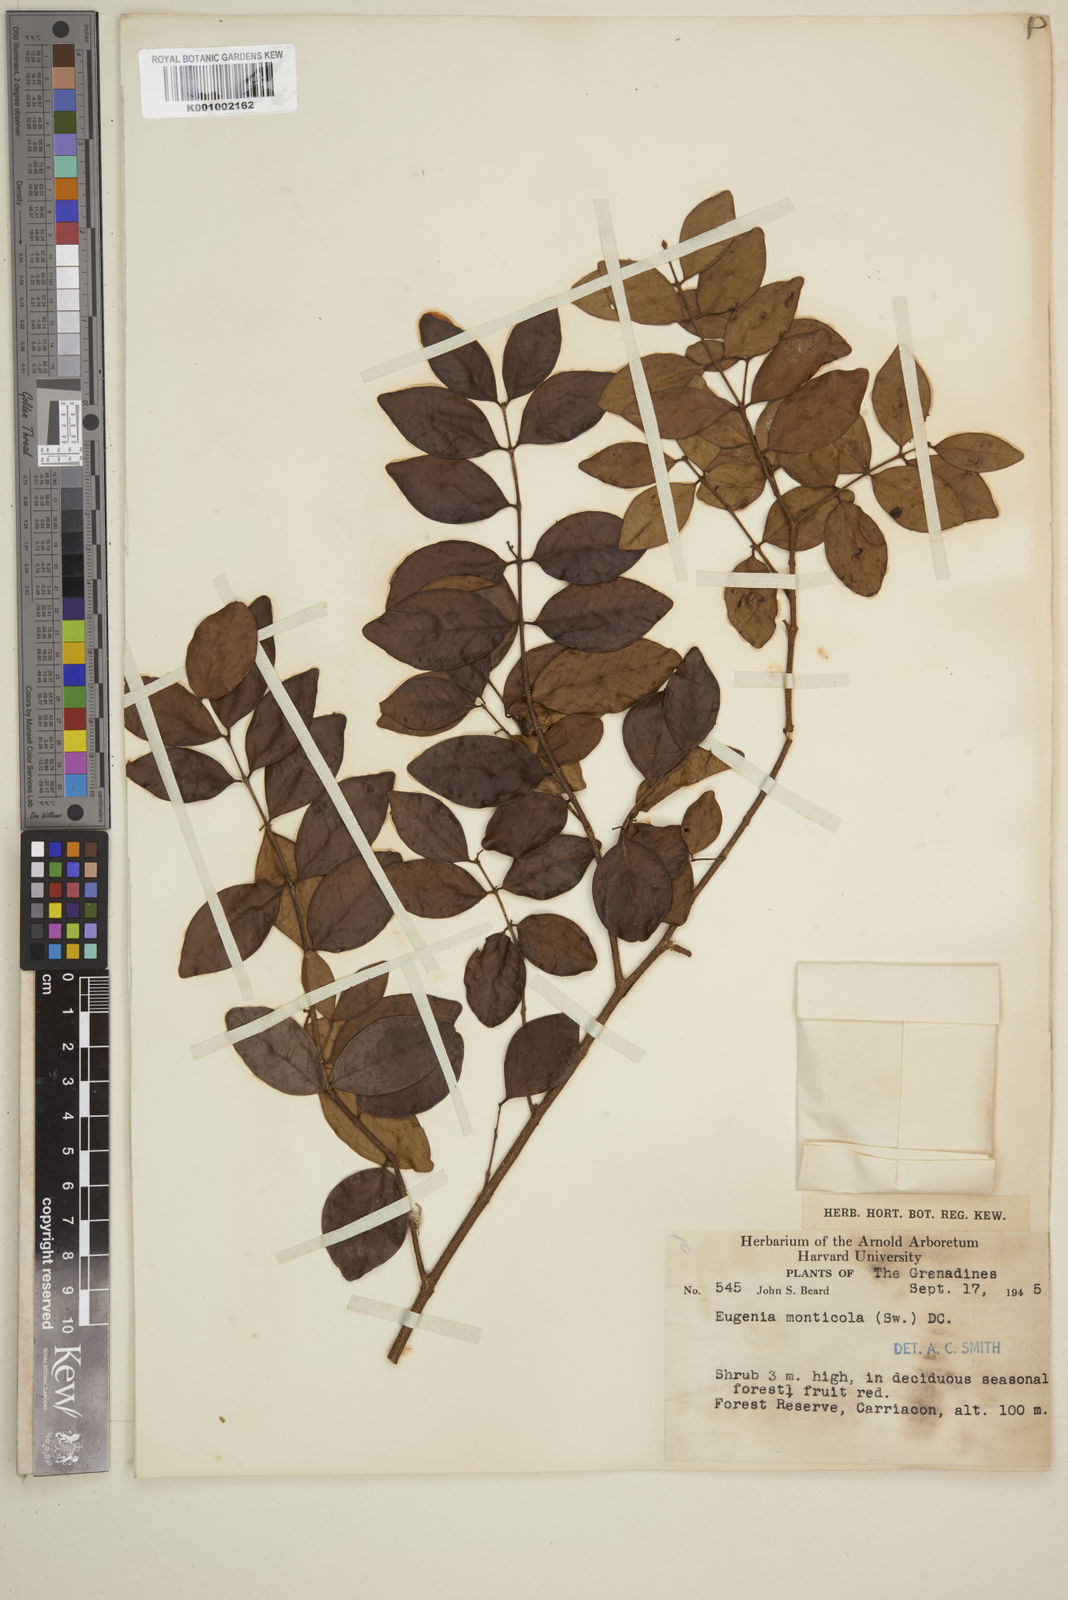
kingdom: Plantae
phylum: Tracheophyta
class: Magnoliopsida
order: Myrtales
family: Myrtaceae
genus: Eugenia
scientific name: Eugenia monticola
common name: Birds berry
